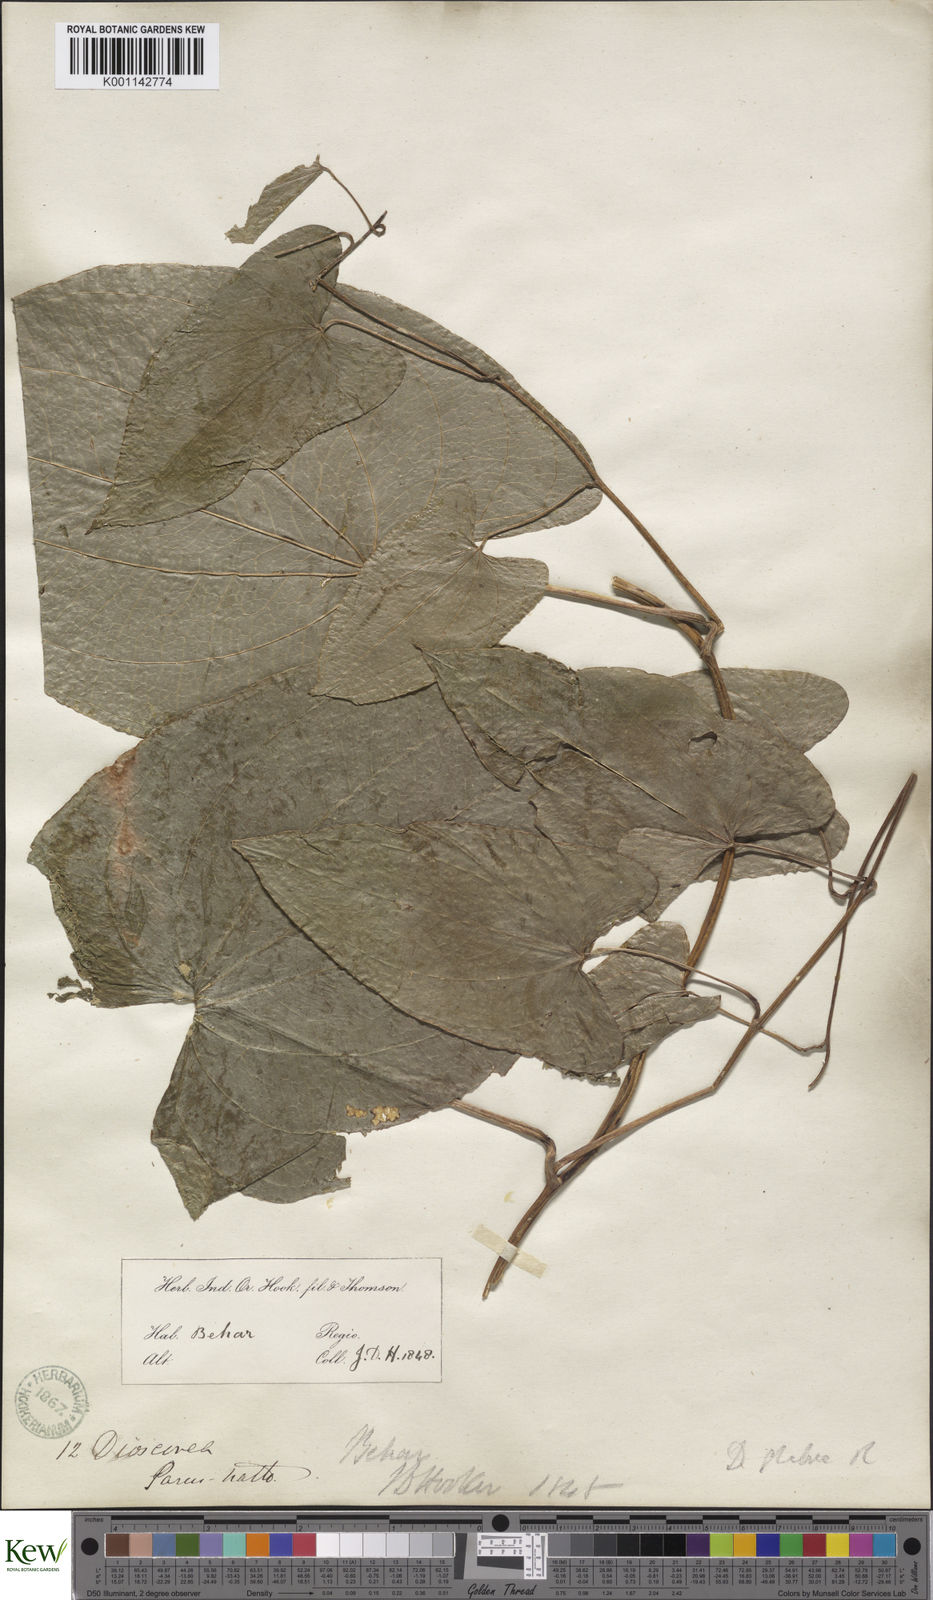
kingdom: Plantae
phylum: Tracheophyta
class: Liliopsida
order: Dioscoreales
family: Dioscoreaceae
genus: Dioscorea
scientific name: Dioscorea belophylla
